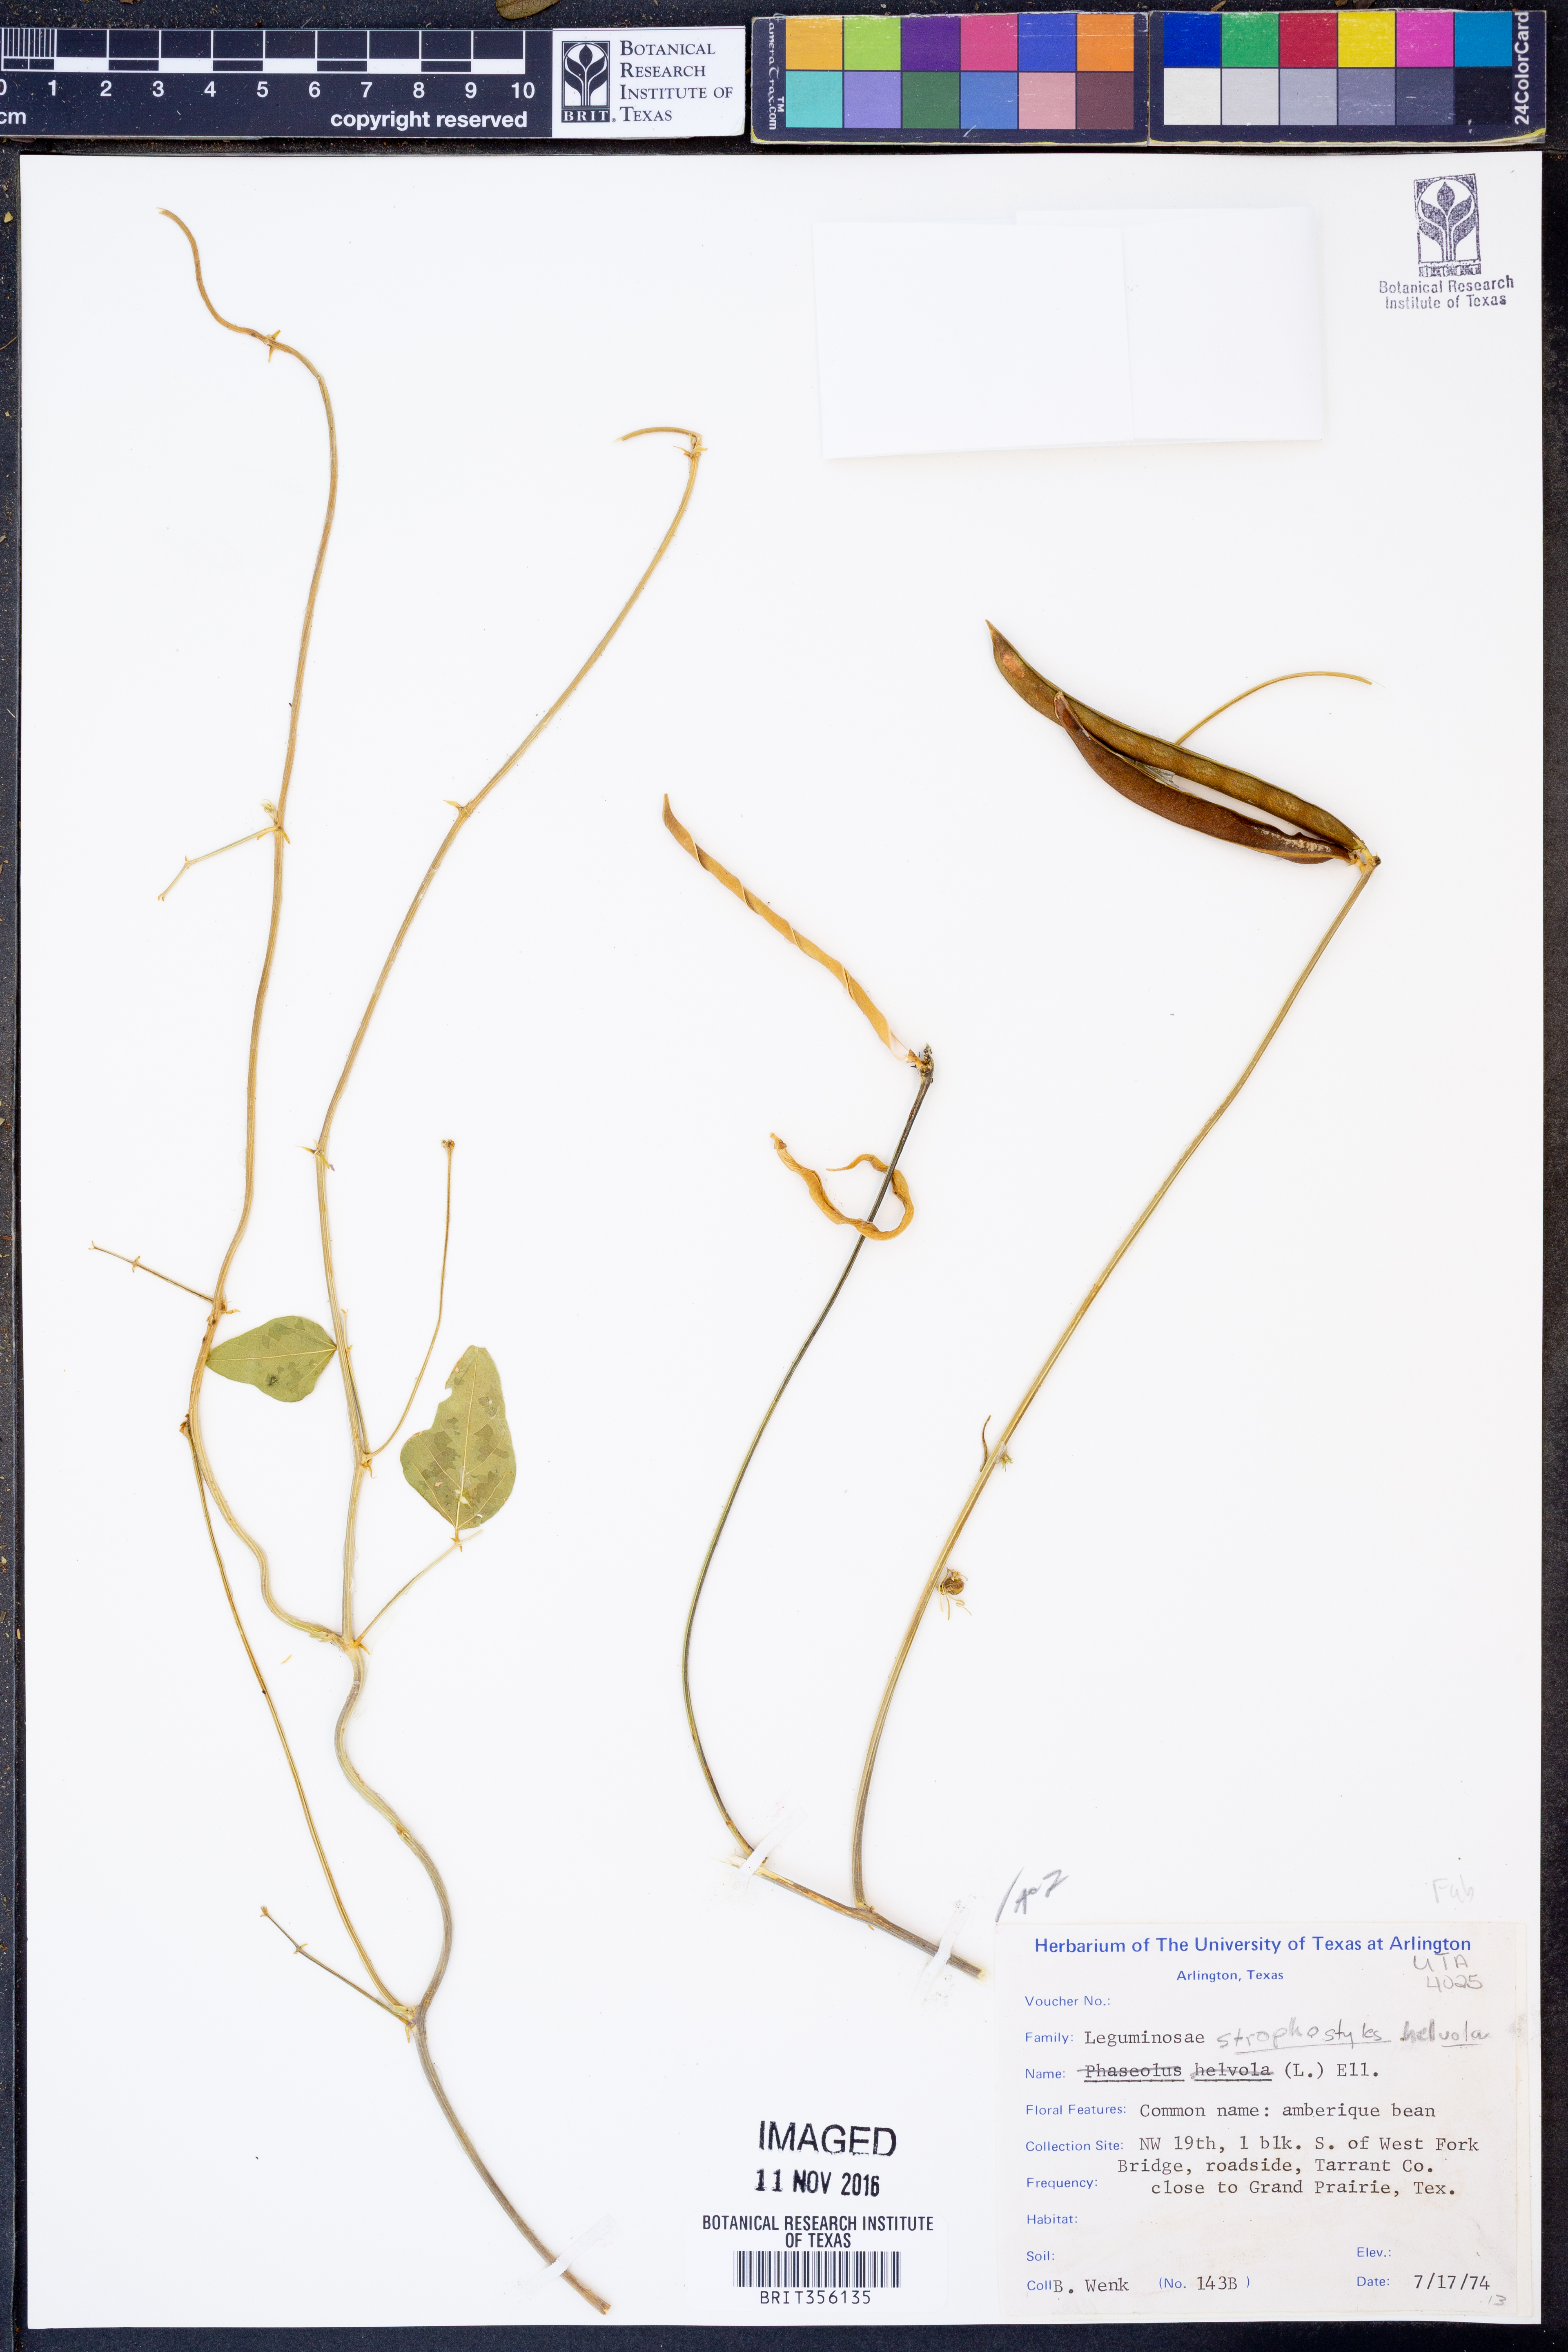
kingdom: Plantae
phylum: Tracheophyta
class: Magnoliopsida
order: Fabales
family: Fabaceae
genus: Strophostyles
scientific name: Strophostyles helvola
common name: Trailing wild bean
